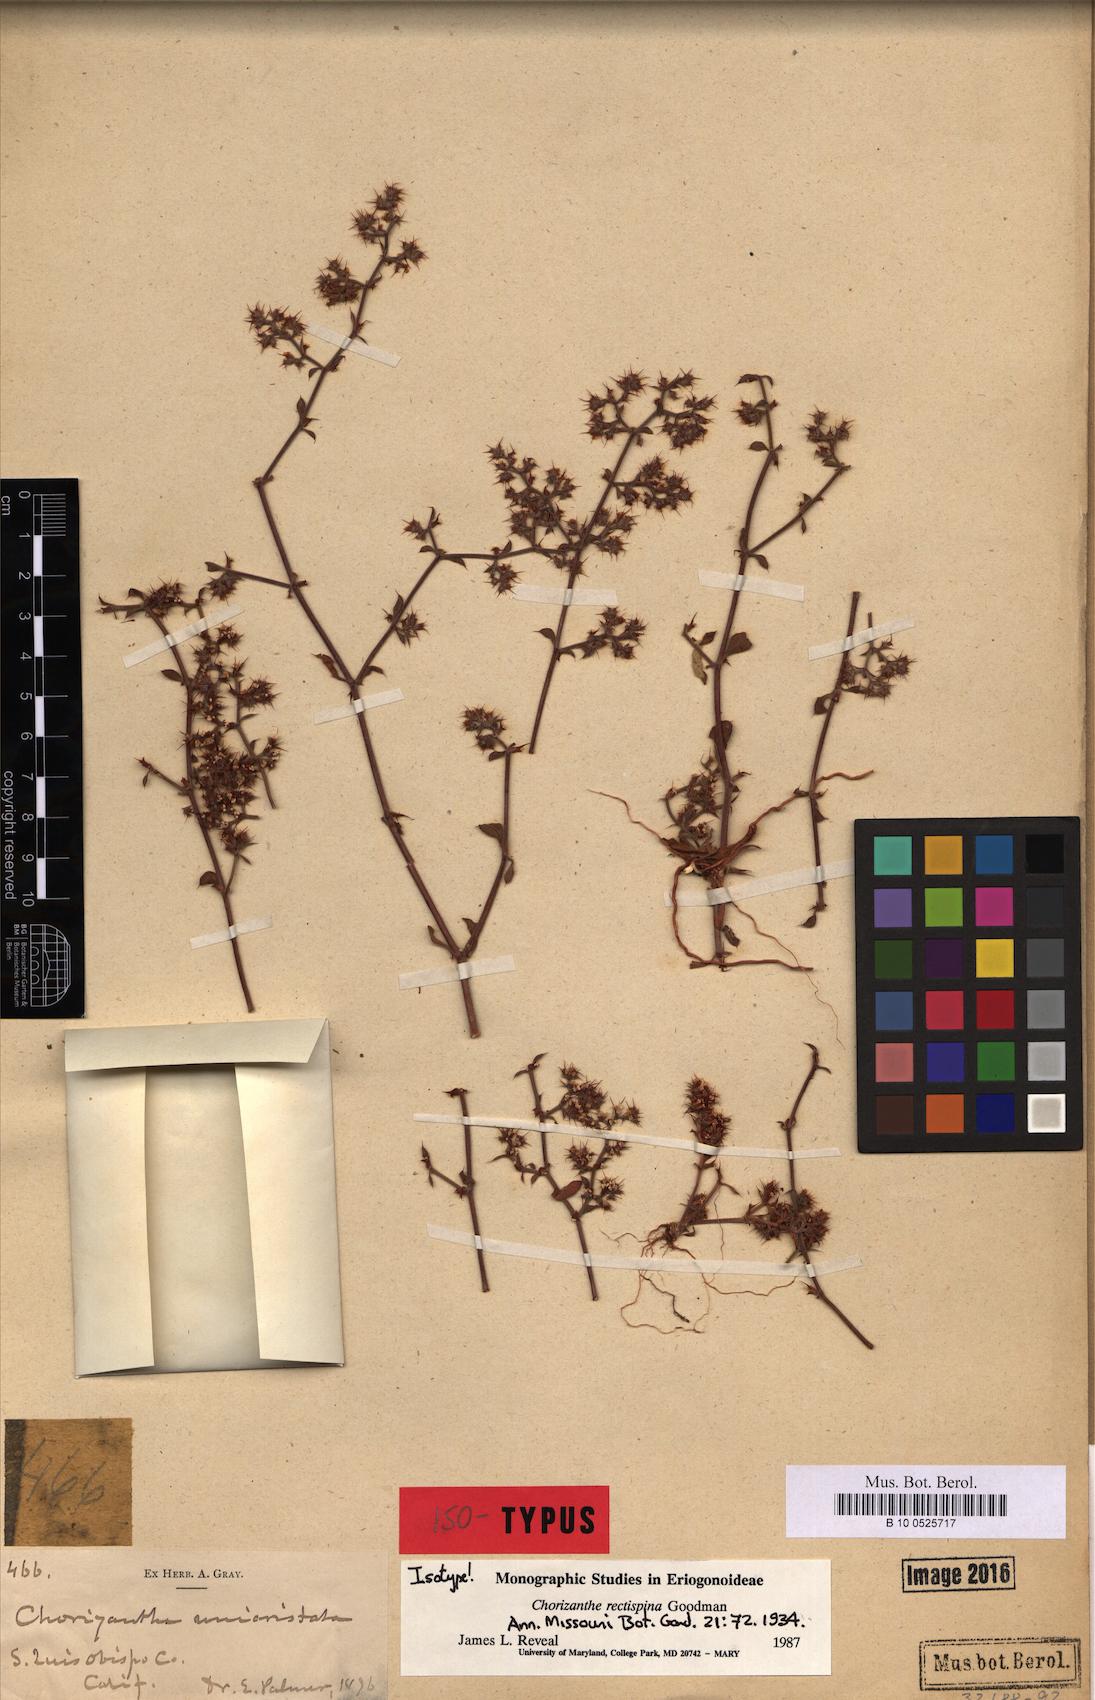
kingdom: Plantae
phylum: Tracheophyta
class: Magnoliopsida
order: Caryophyllales
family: Polygonaceae
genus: Chorizanthe
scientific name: Chorizanthe rectispina
